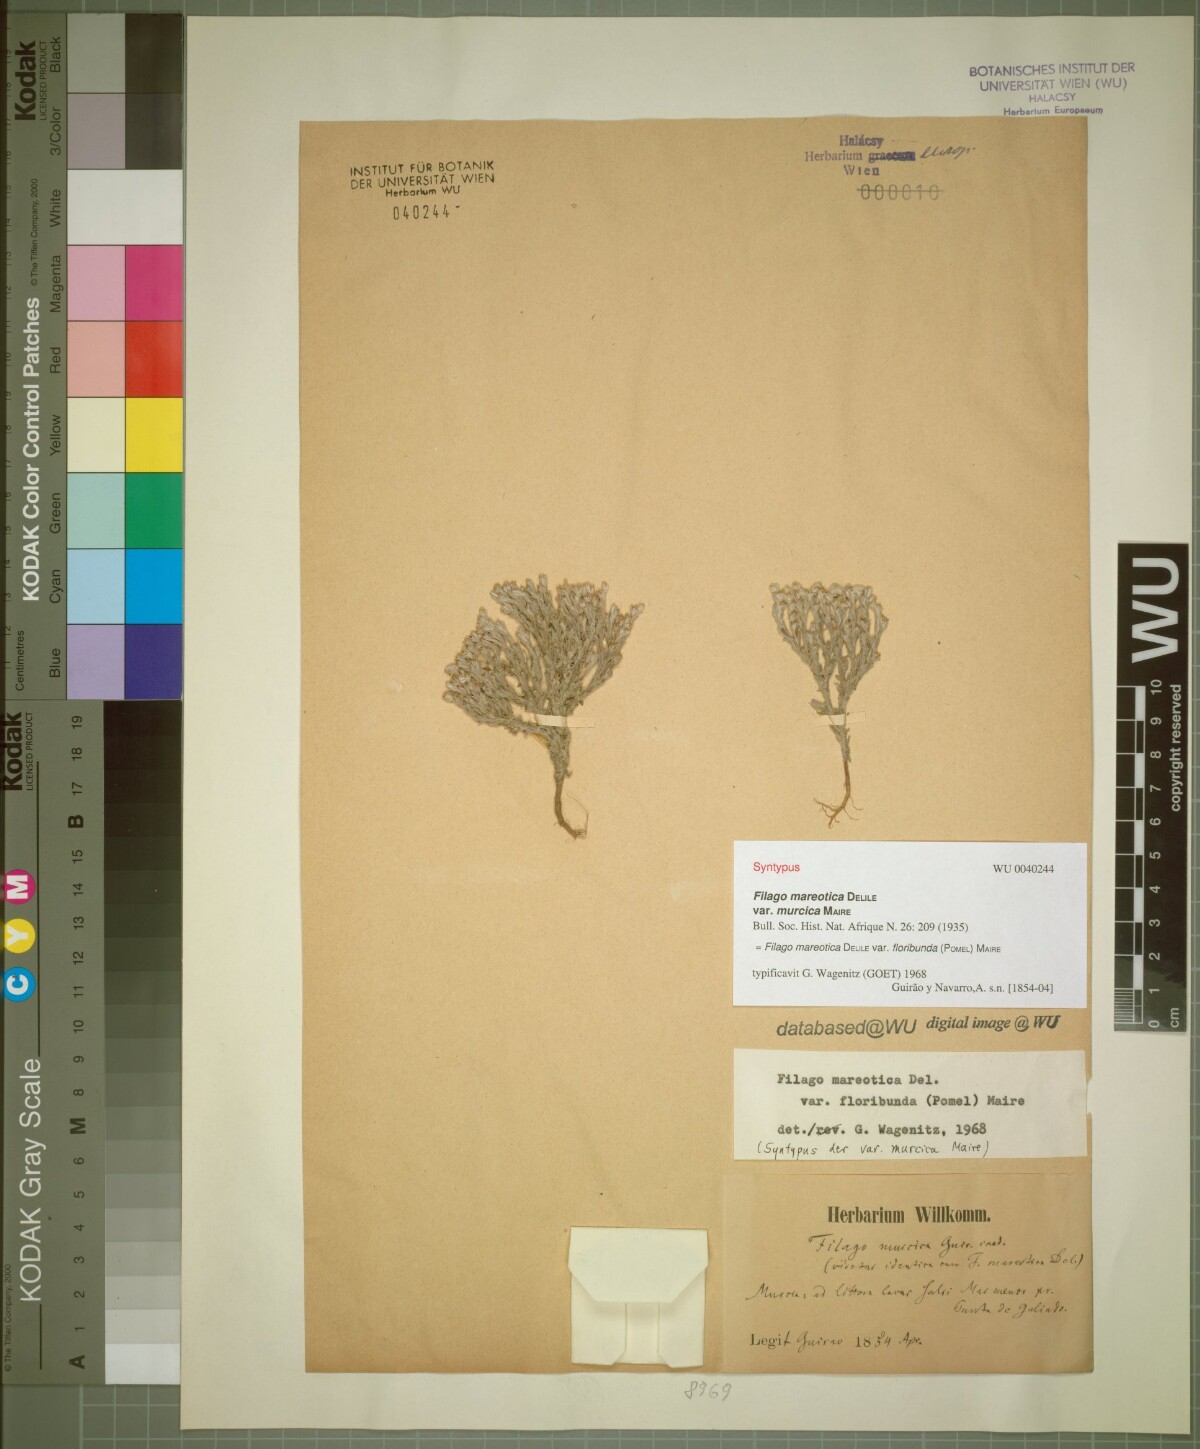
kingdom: Plantae
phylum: Tracheophyta
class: Magnoliopsida
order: Asterales
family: Asteraceae
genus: Filago
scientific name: Filago mareotica
